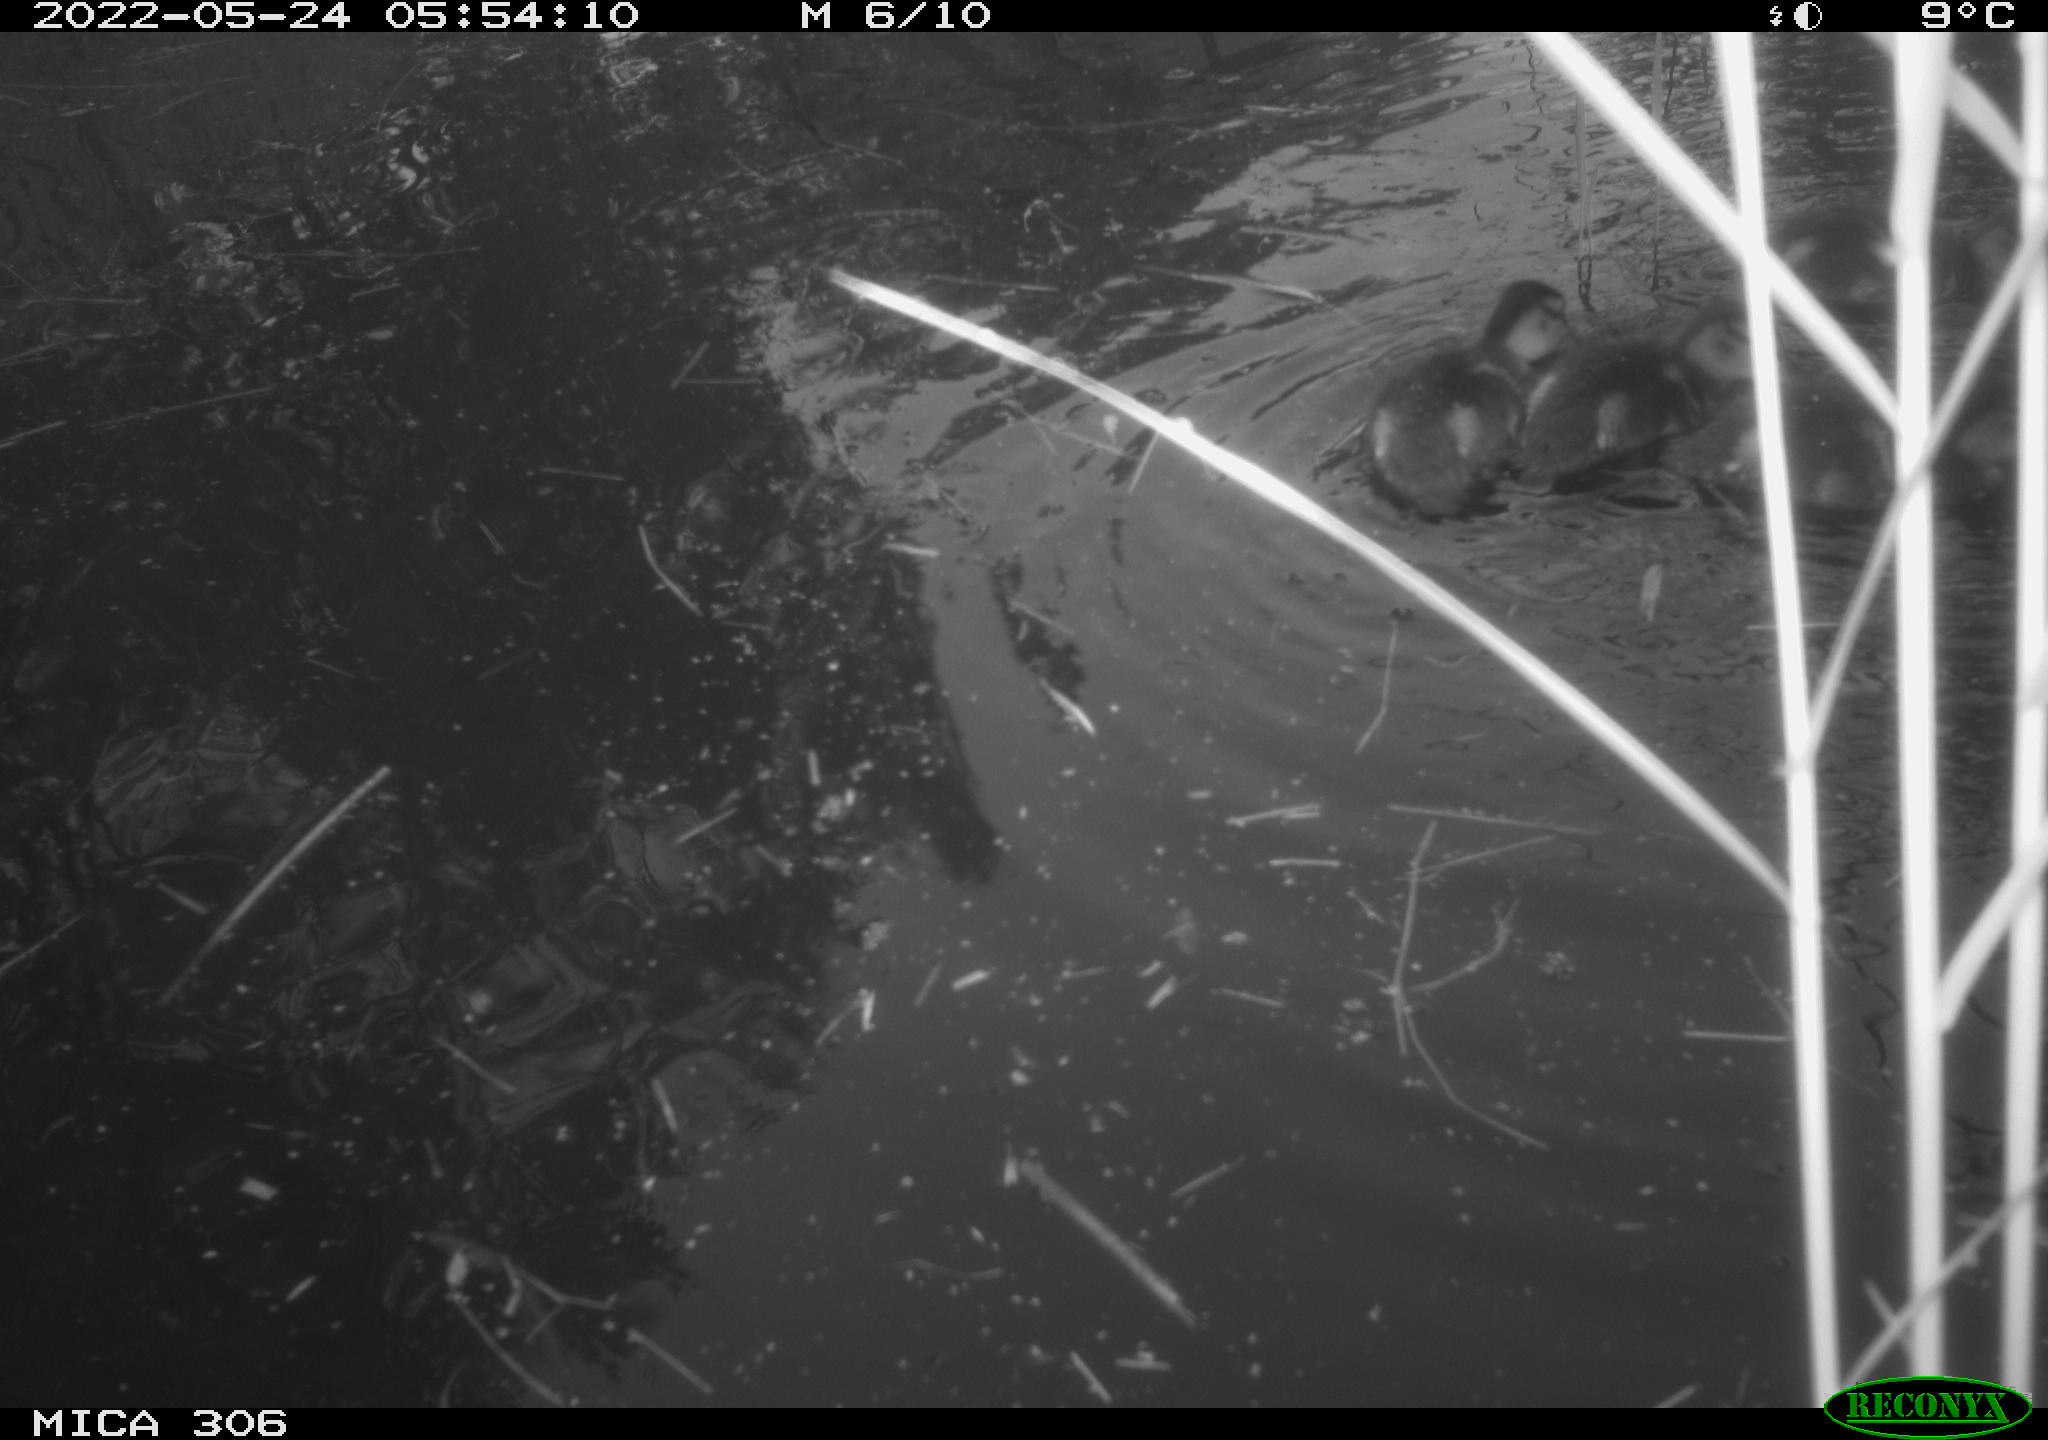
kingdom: Animalia
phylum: Chordata
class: Aves
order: Anseriformes
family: Anatidae
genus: Anas
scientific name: Anas platyrhynchos
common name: Mallard
